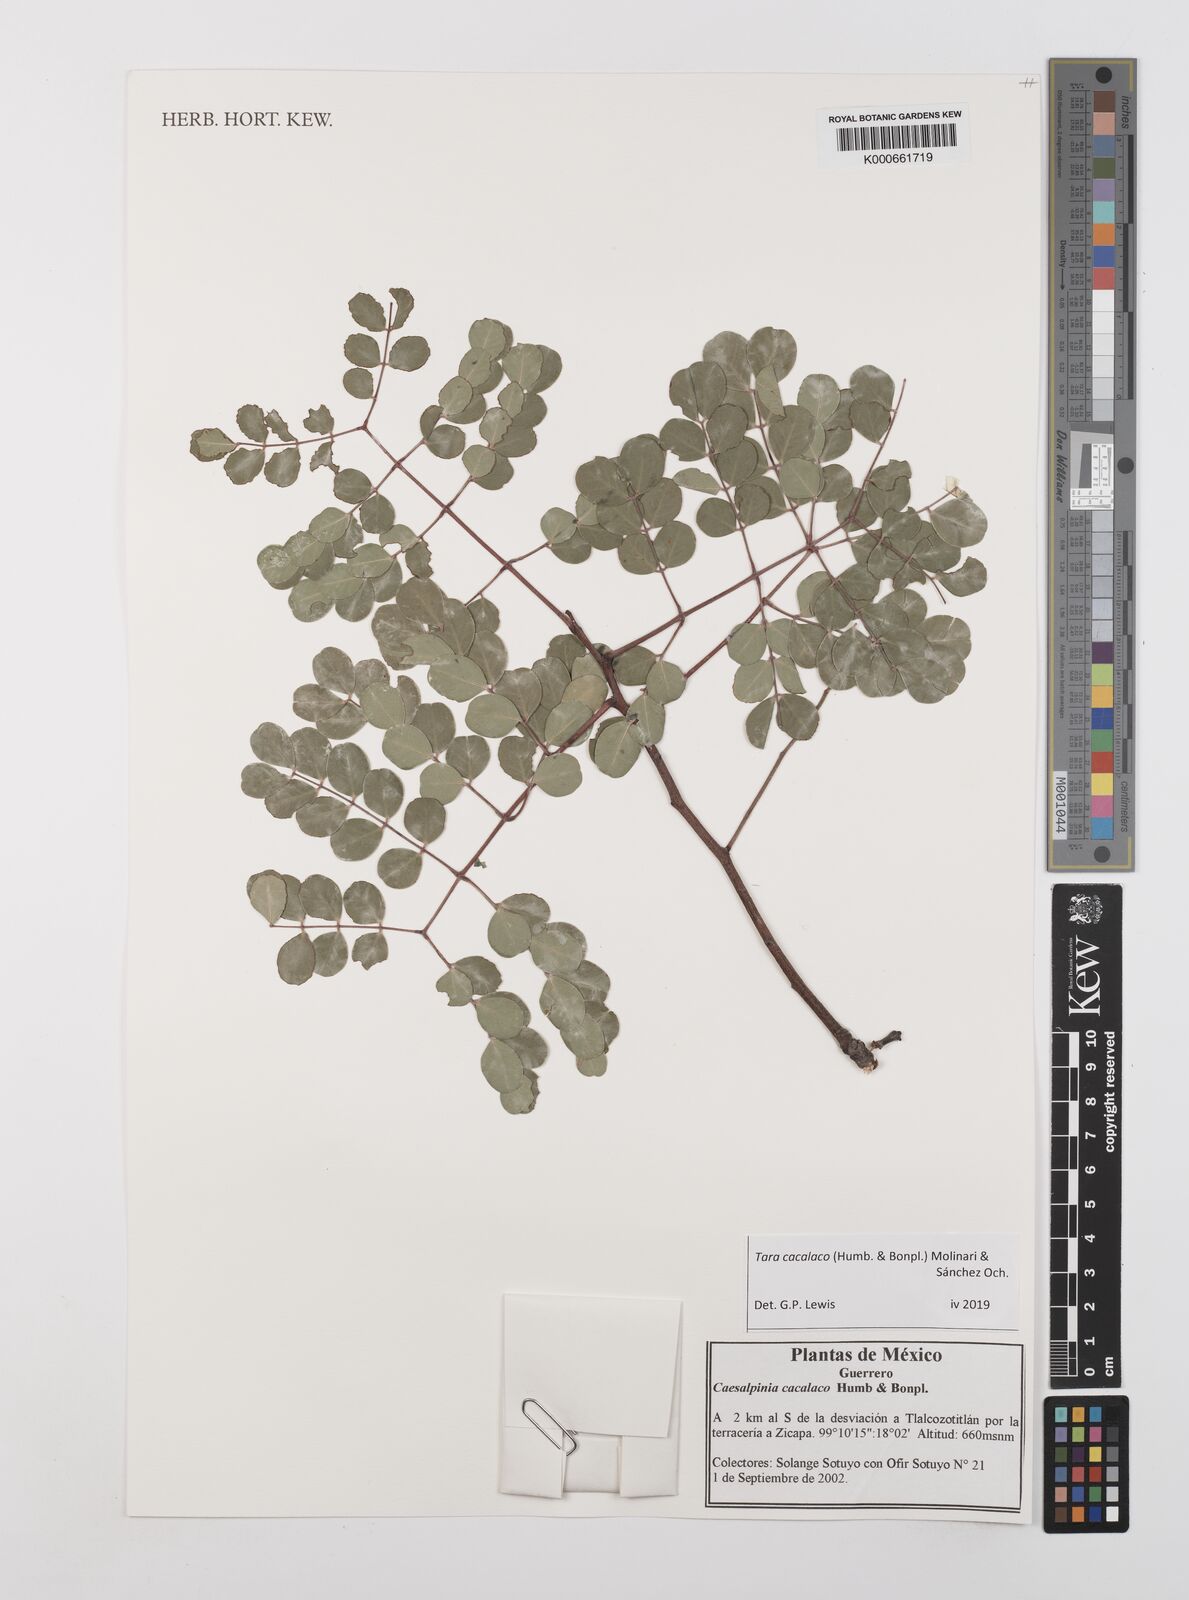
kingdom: Plantae
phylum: Tracheophyta
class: Magnoliopsida
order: Fabales
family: Fabaceae
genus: Tara
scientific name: Tara cacalaco
